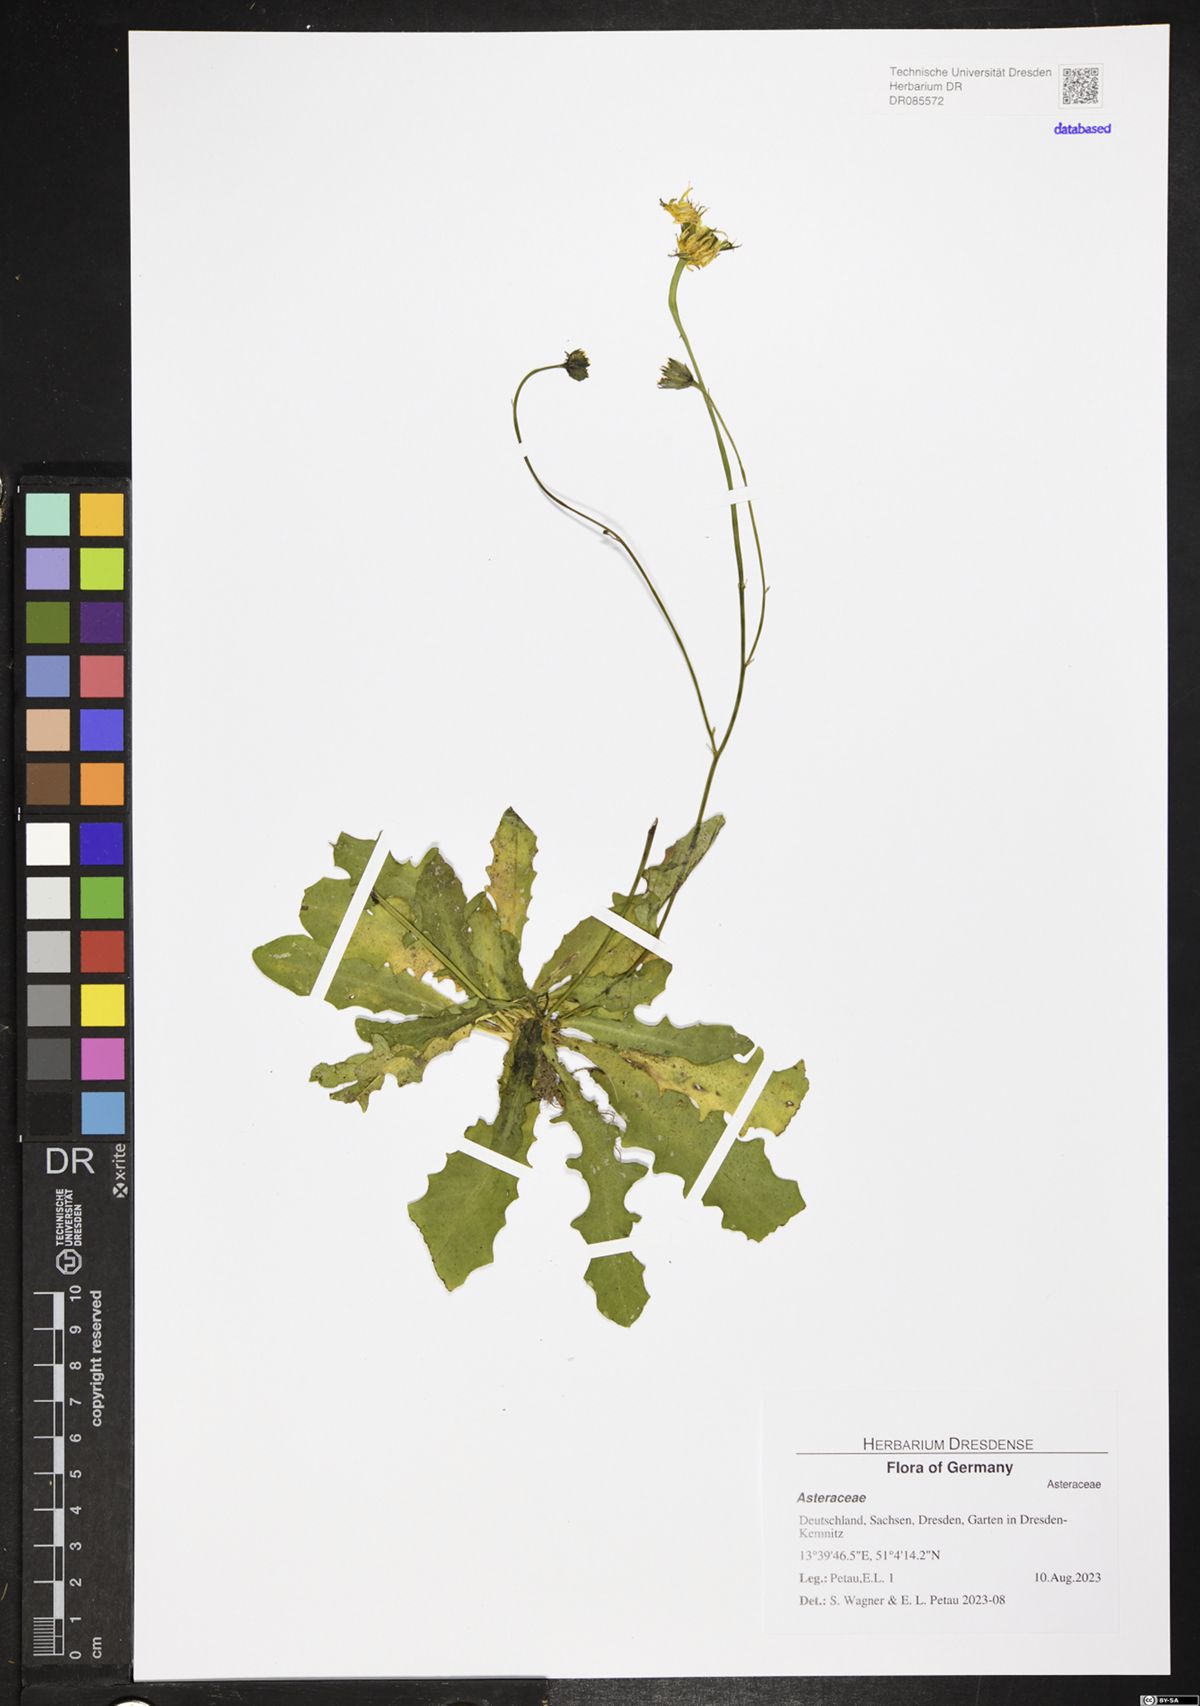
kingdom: Plantae
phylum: Tracheophyta
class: Magnoliopsida
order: Asterales
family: Asteraceae
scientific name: Asteraceae
